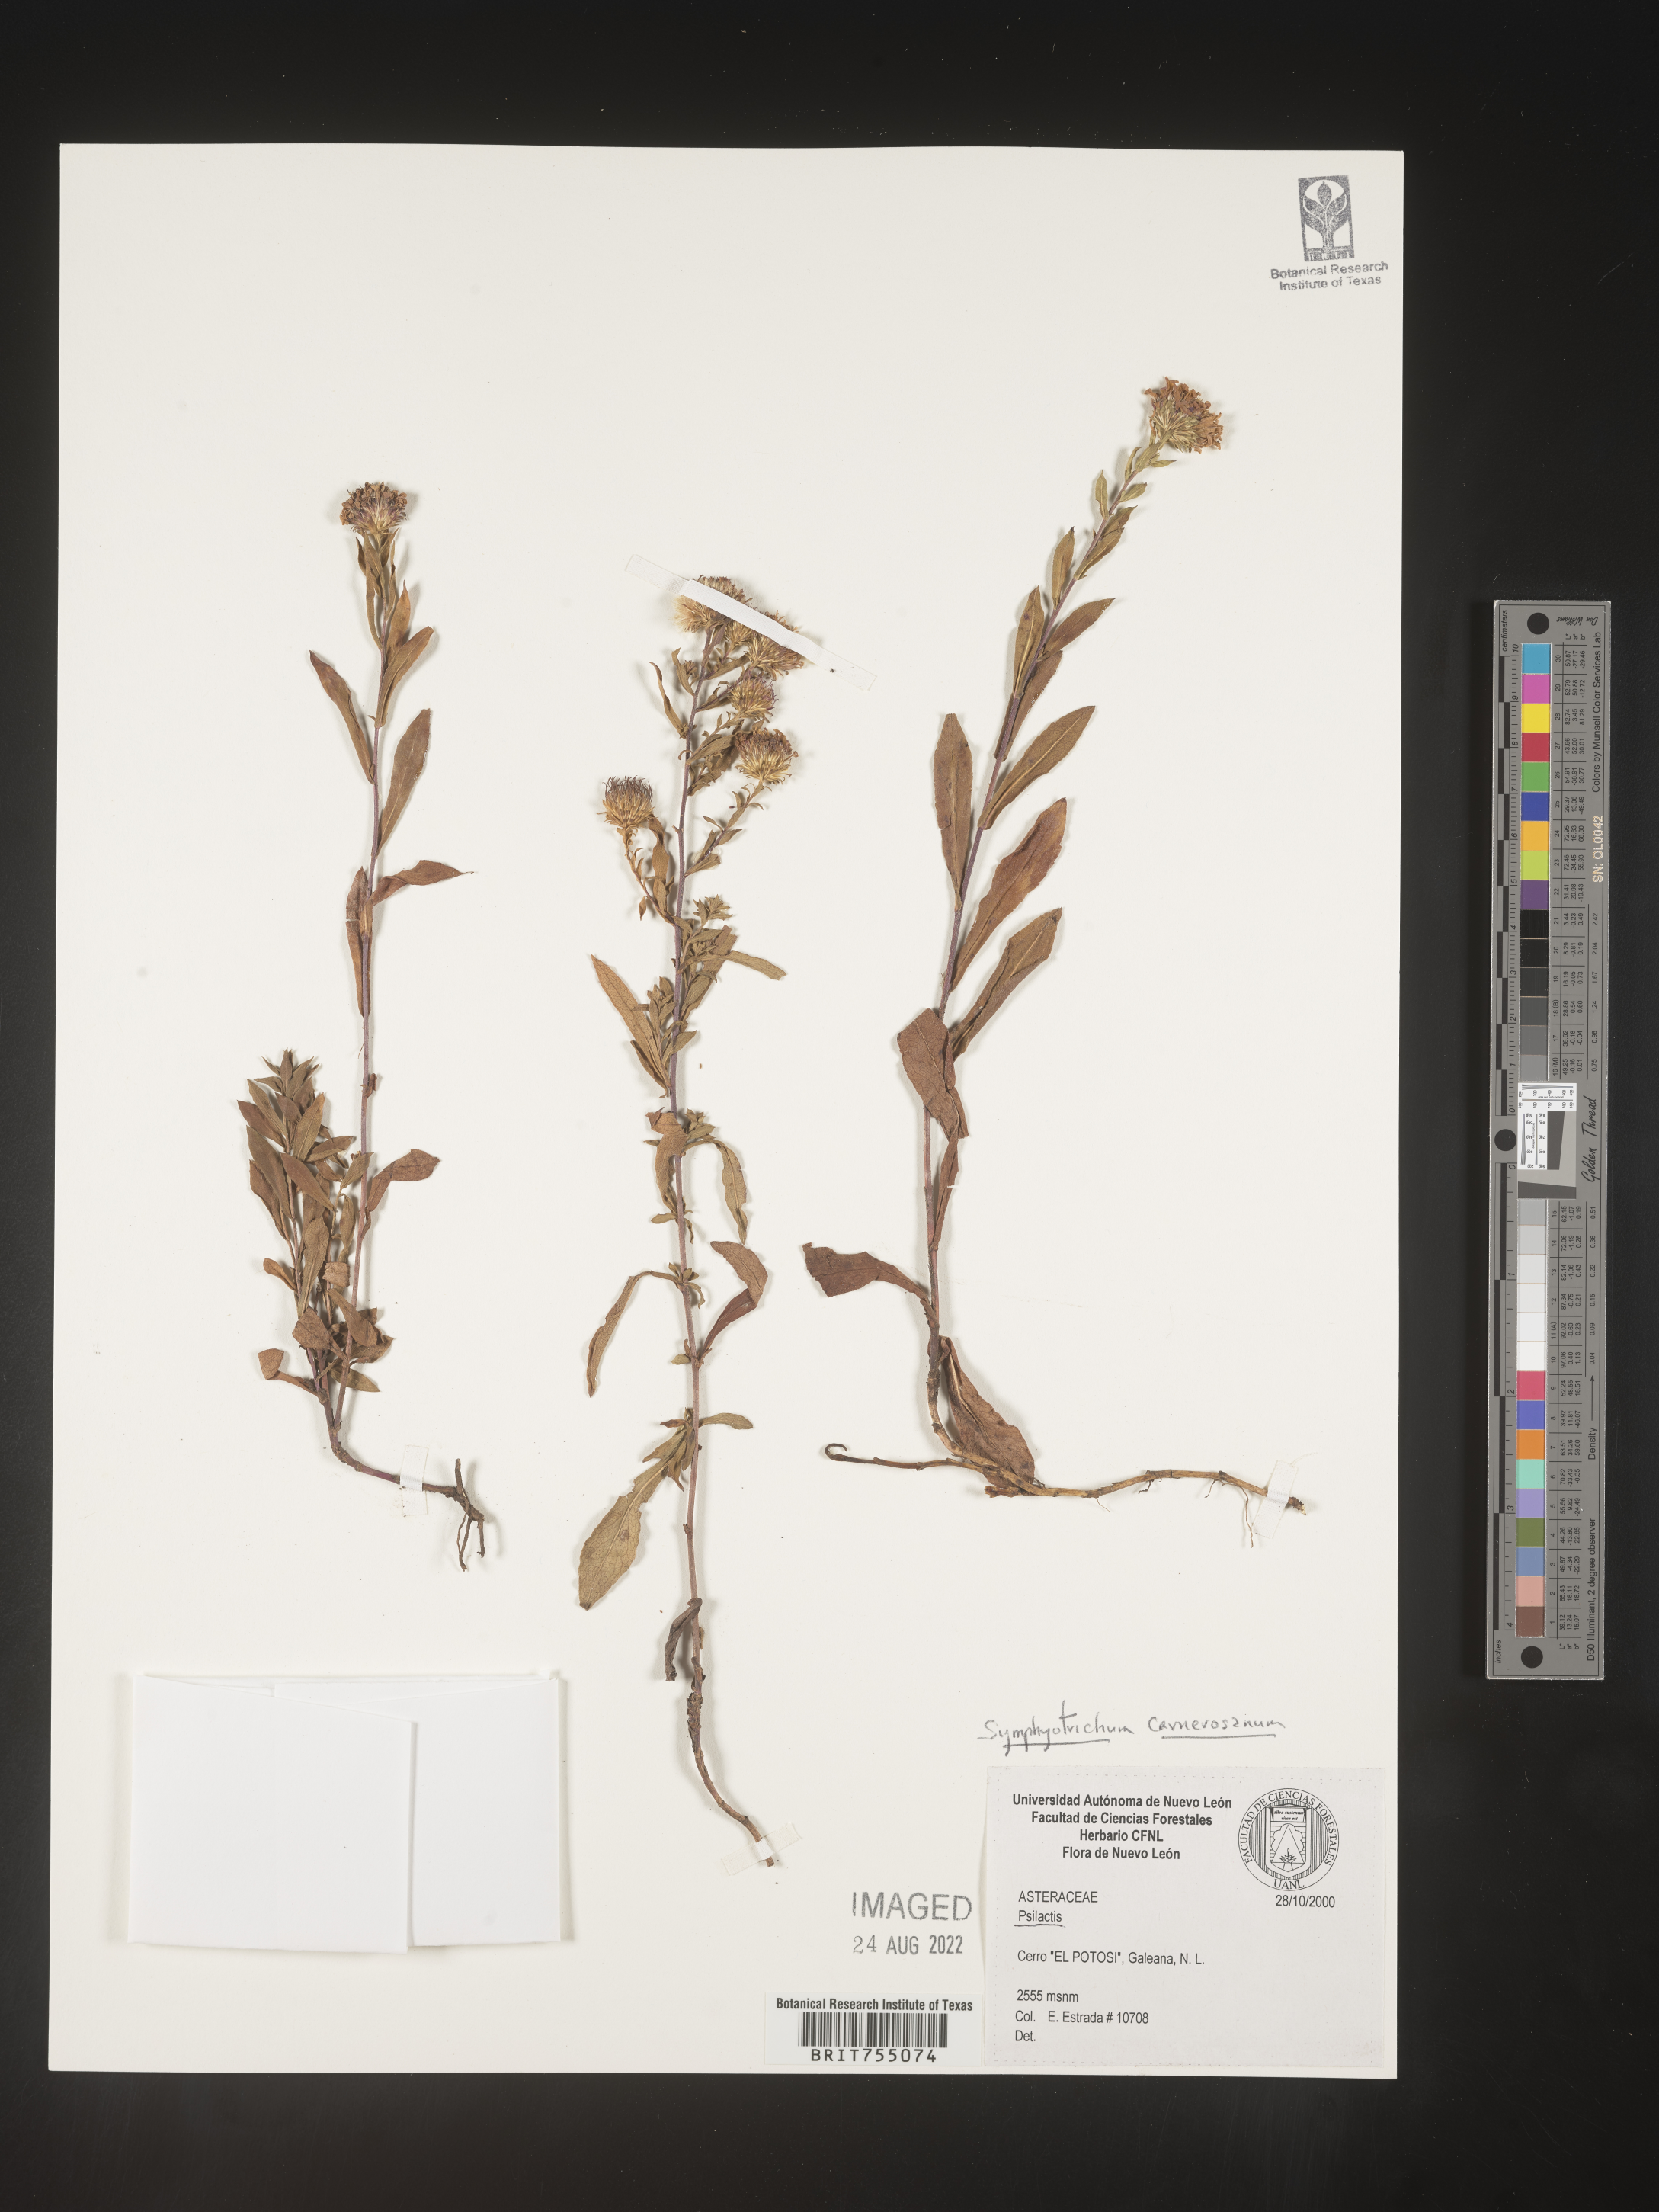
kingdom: Plantae
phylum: Tracheophyta
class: Magnoliopsida
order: Asterales
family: Asteraceae
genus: Symphyotrichum
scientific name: Symphyotrichum carnerosanum
